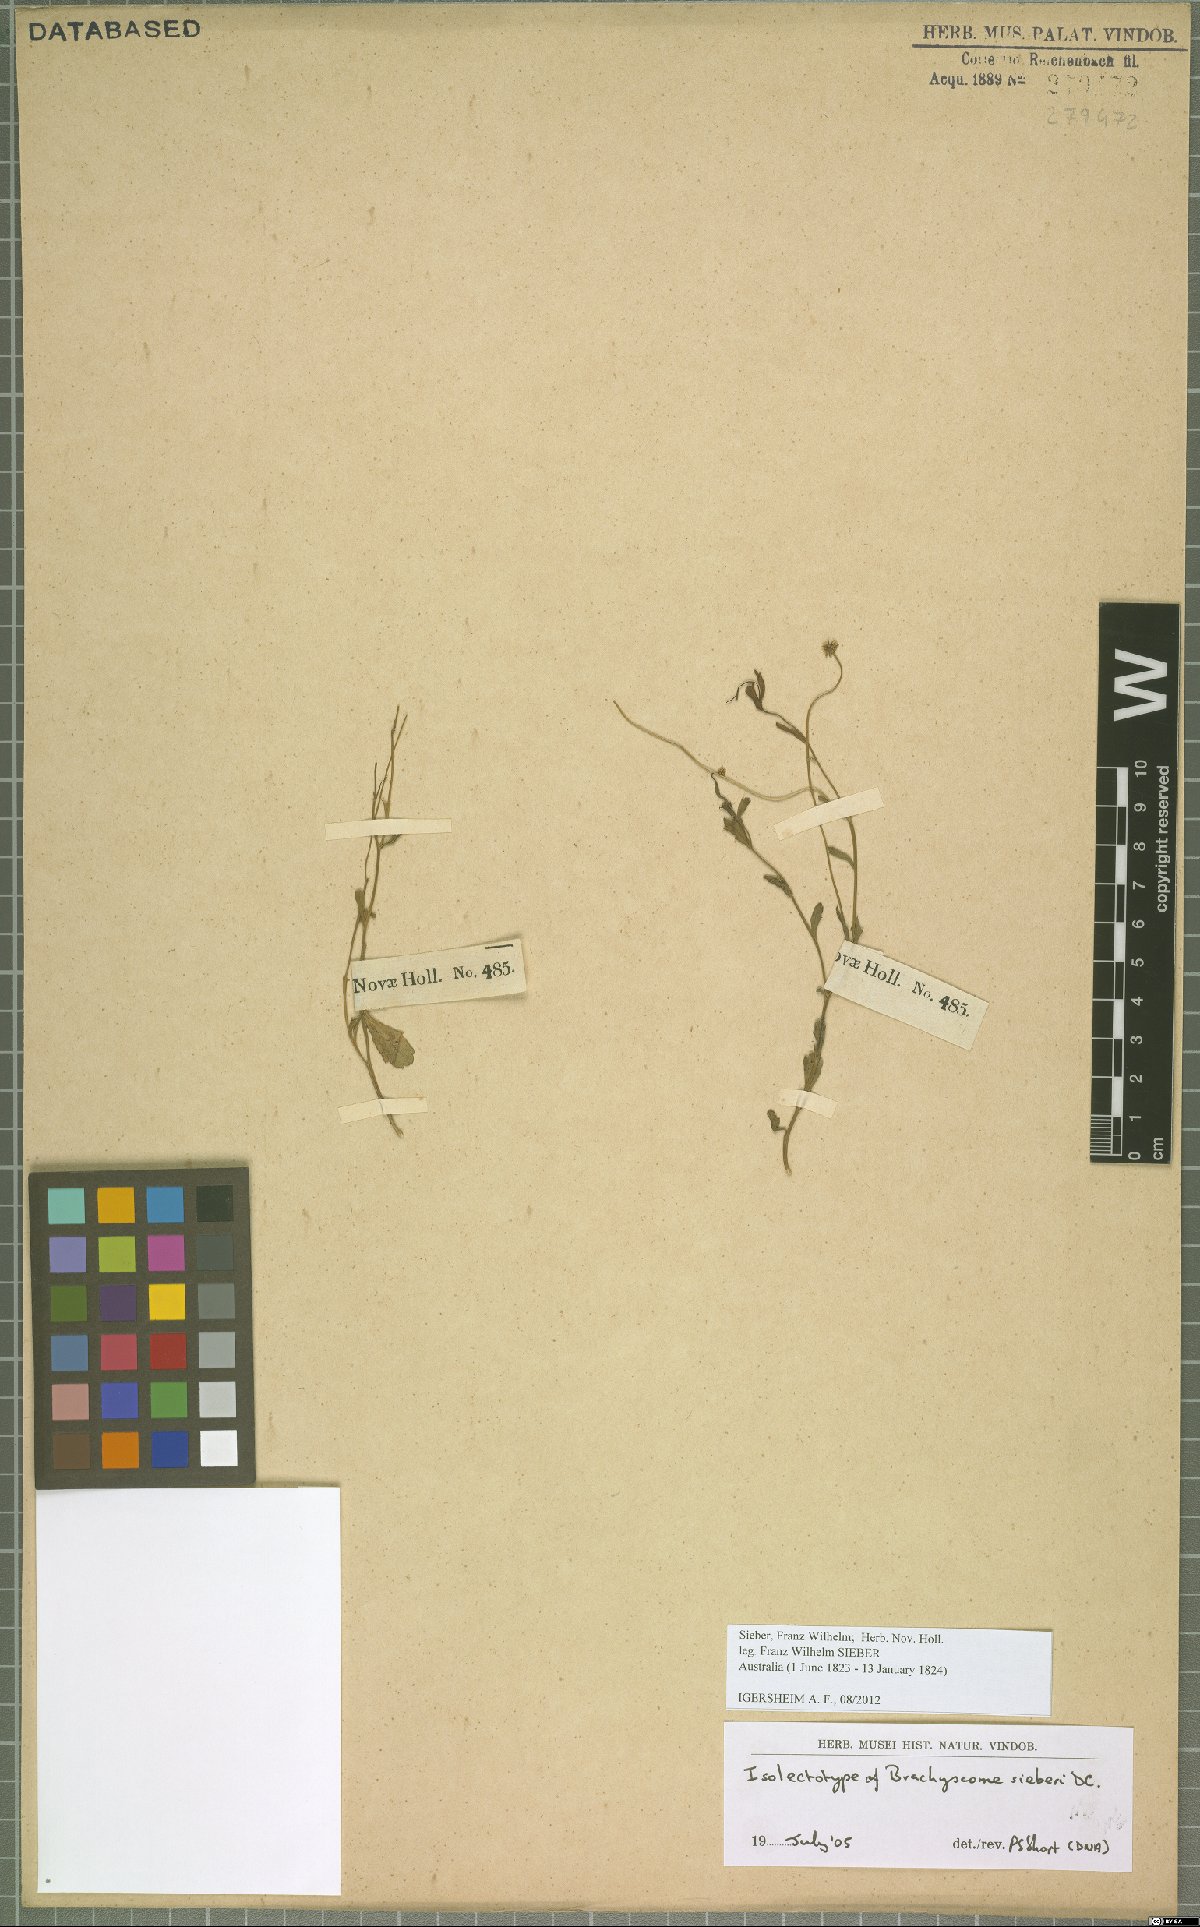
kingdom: Plantae
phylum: Tracheophyta
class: Magnoliopsida
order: Asterales
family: Asteraceae
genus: Brachyscome
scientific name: Brachyscome sieberi
